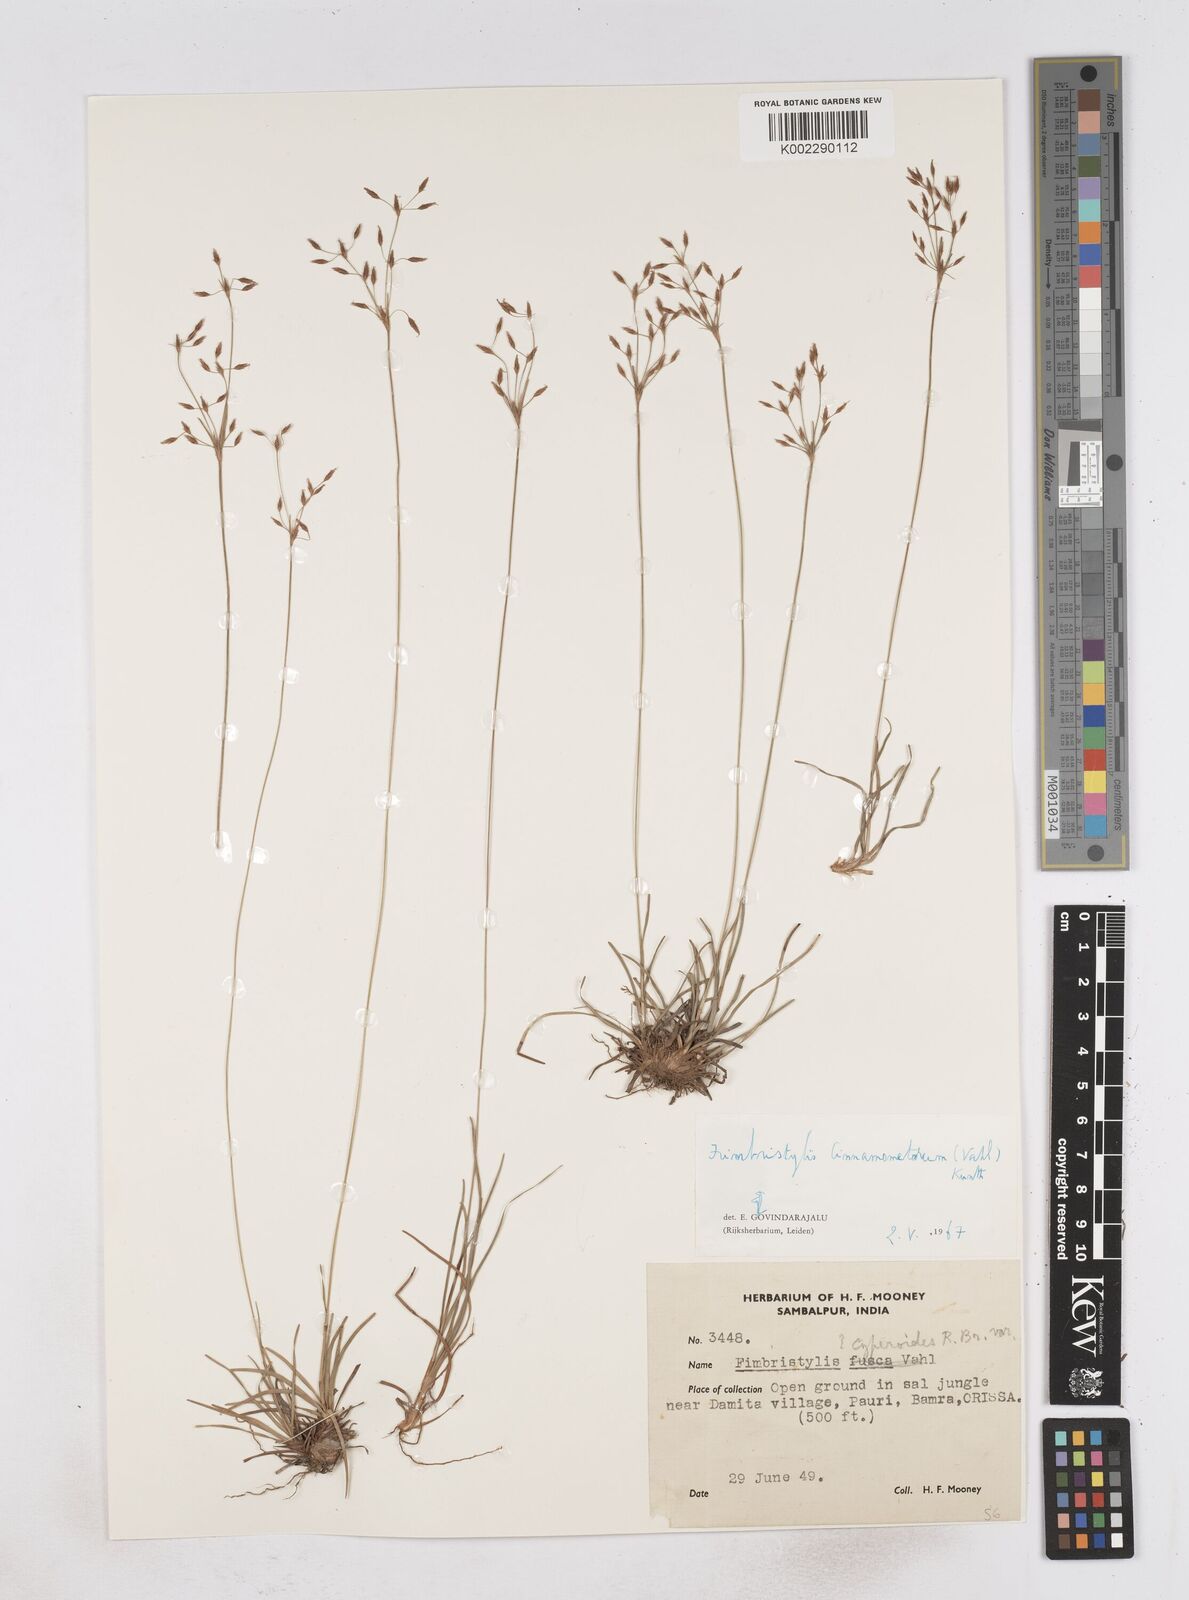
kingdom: Plantae
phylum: Tracheophyta
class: Liliopsida
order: Poales
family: Cyperaceae
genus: Fimbristylis
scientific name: Fimbristylis cinnamometorum
